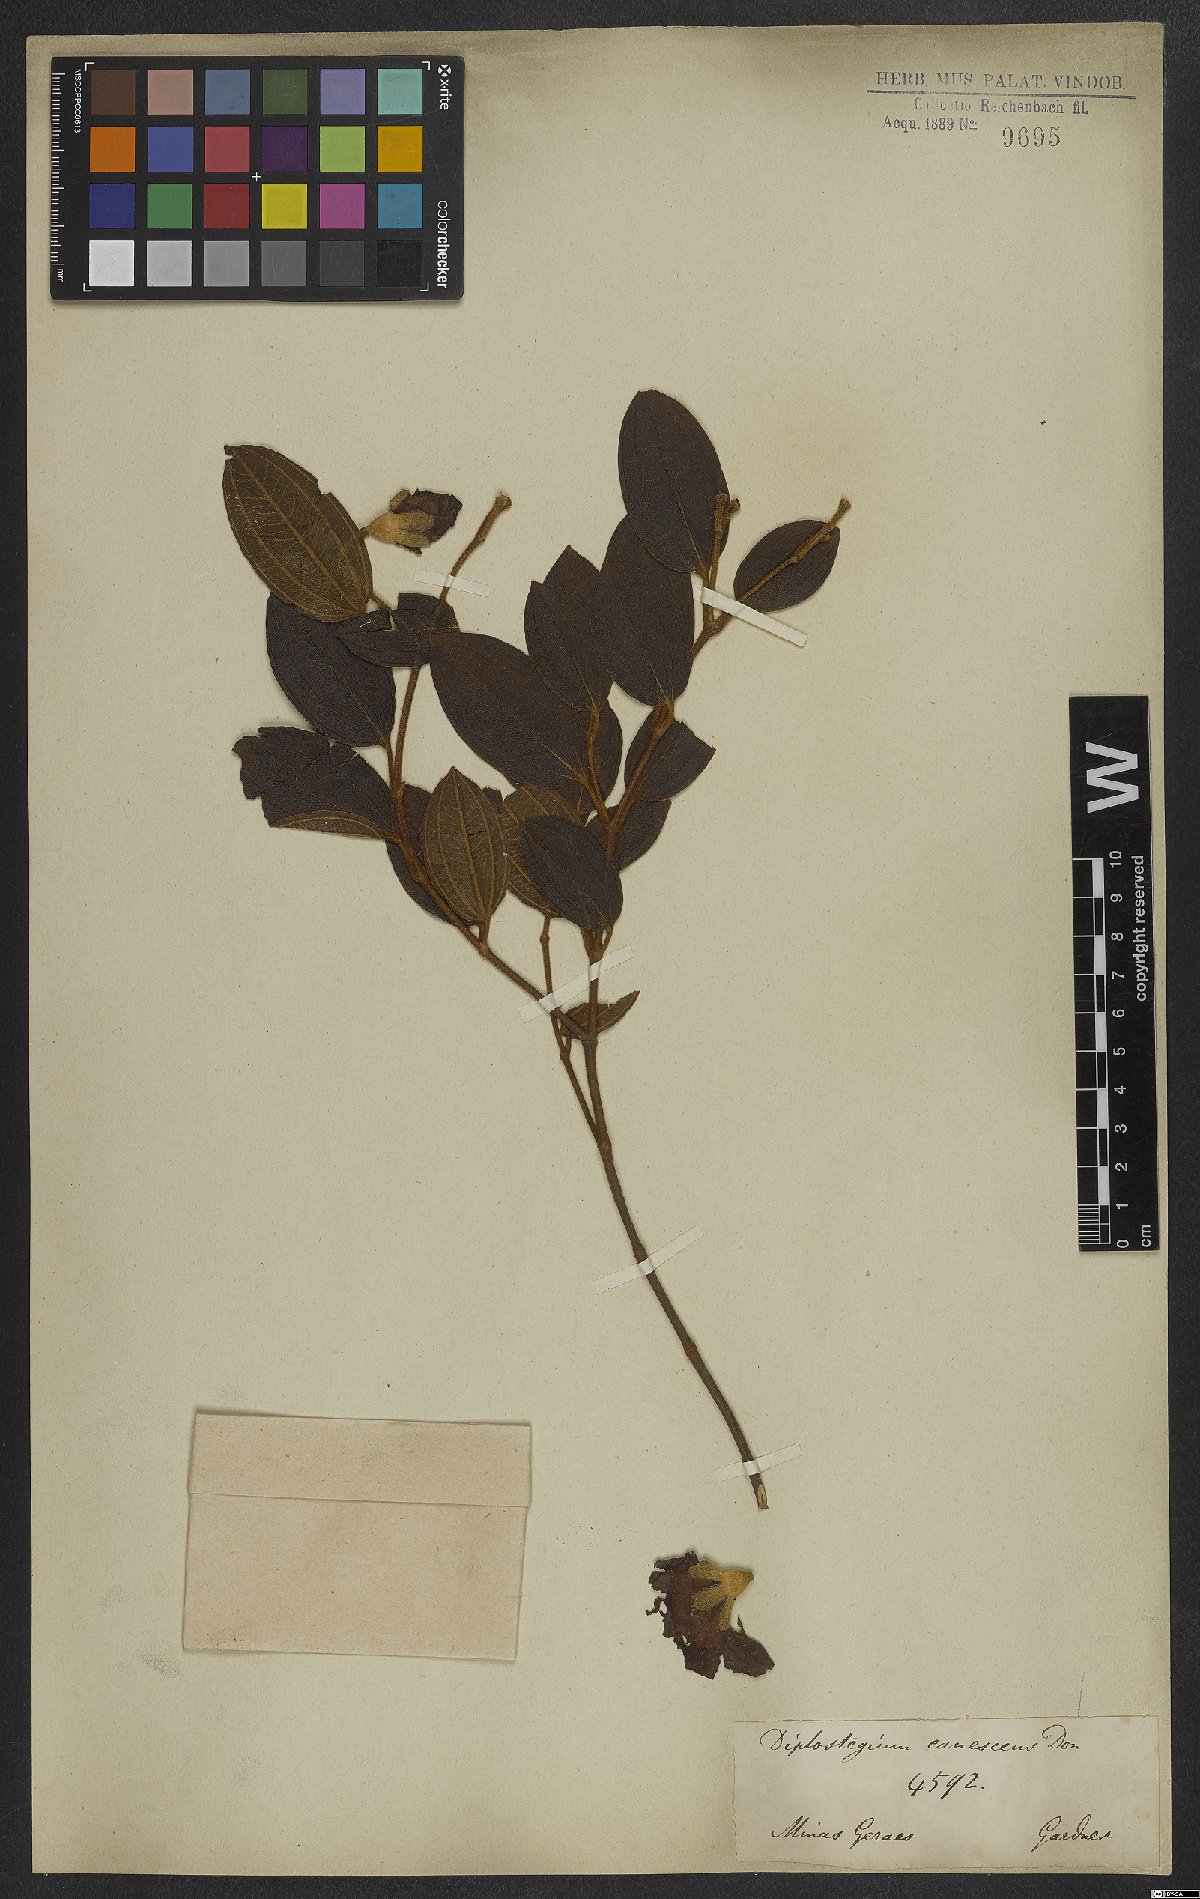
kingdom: Plantae
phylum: Tracheophyta
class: Magnoliopsida
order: Myrtales
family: Melastomataceae
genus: Pleroma
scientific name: Pleroma canescens
